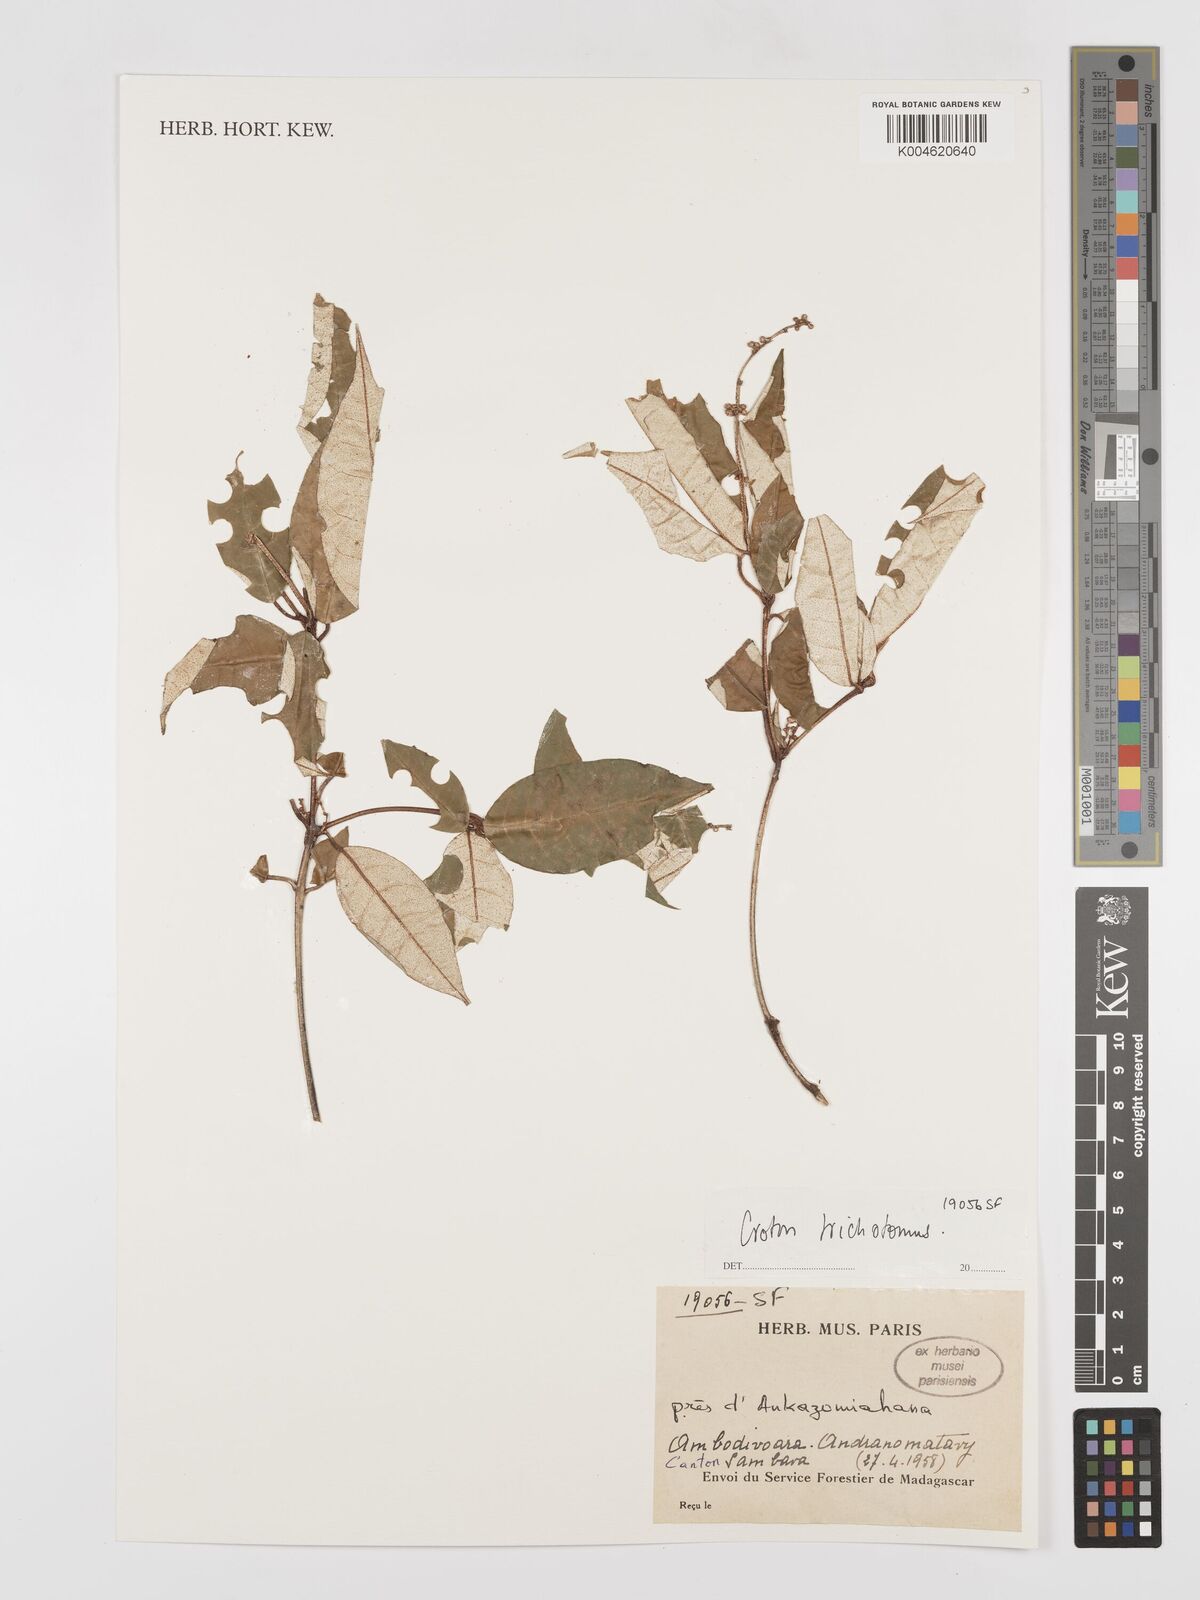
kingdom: Plantae
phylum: Tracheophyta
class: Magnoliopsida
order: Malpighiales
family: Euphorbiaceae
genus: Croton
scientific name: Croton trichotomus
